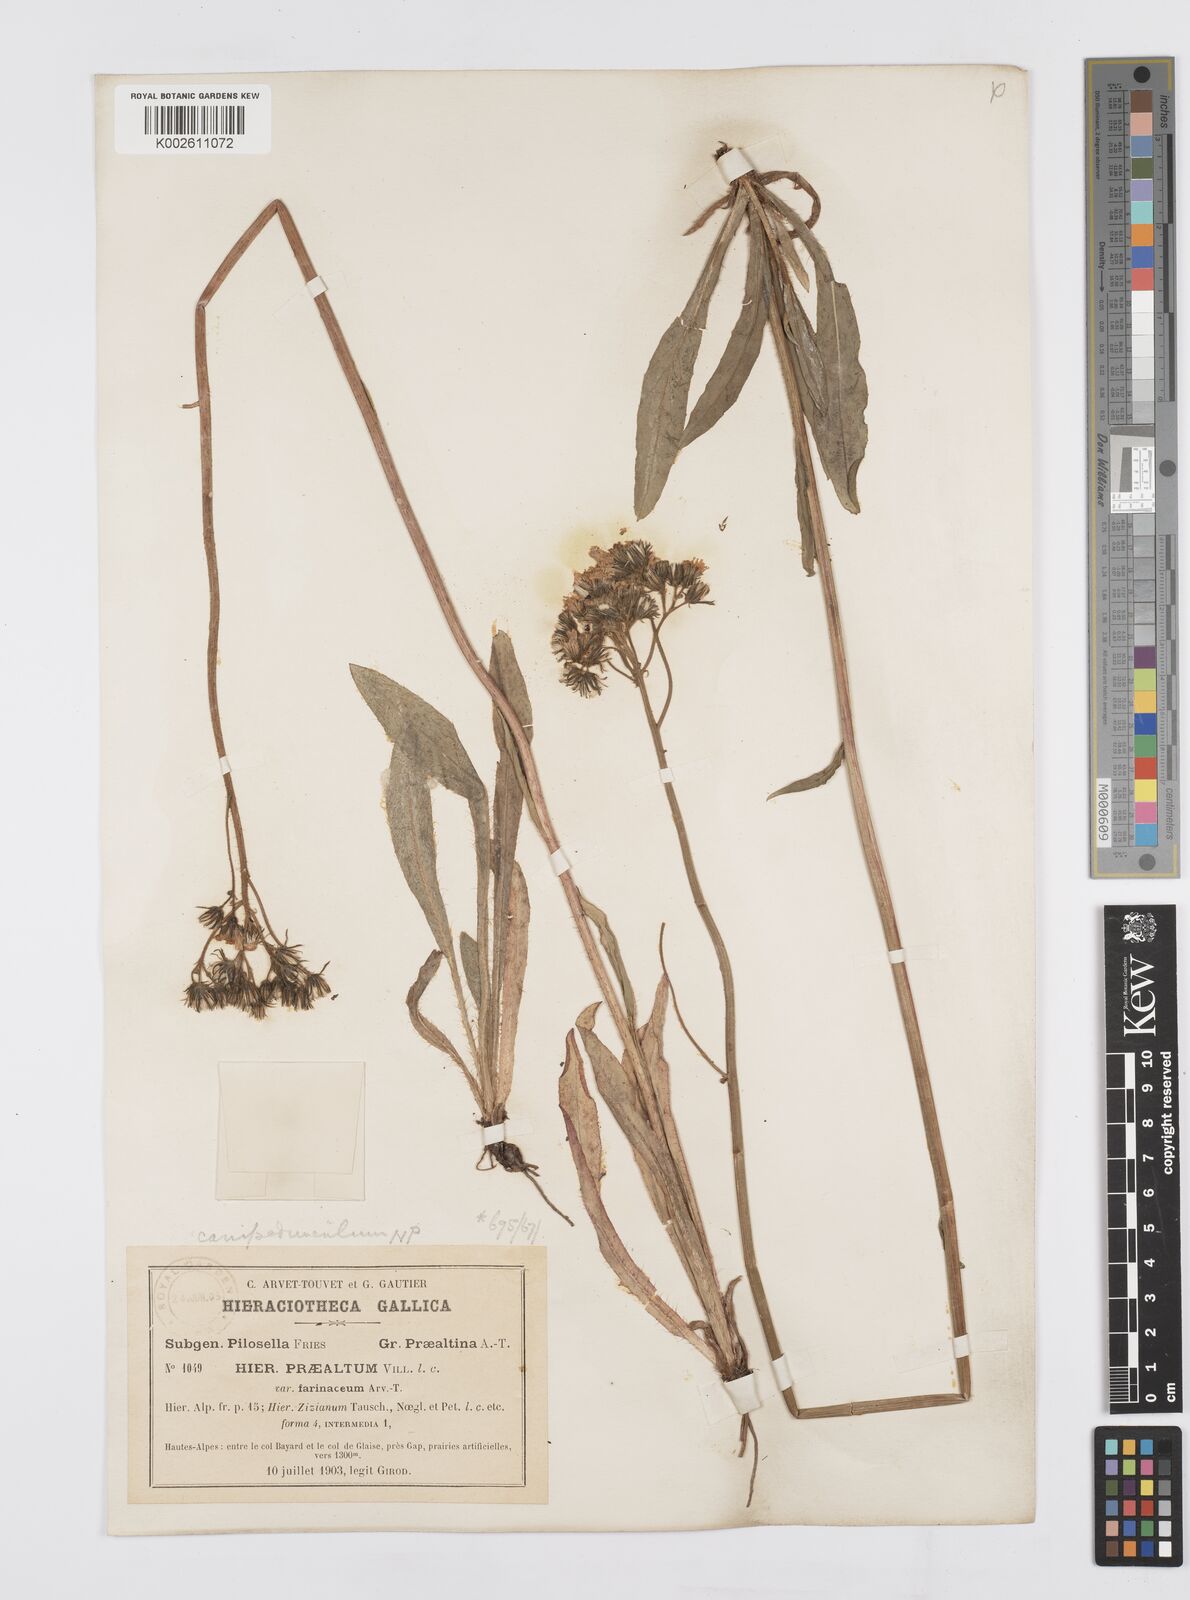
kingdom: Plantae
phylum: Tracheophyta
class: Magnoliopsida
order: Asterales
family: Asteraceae
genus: Pilosella
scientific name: Pilosella piloselloides
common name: Glaucous king-devil
